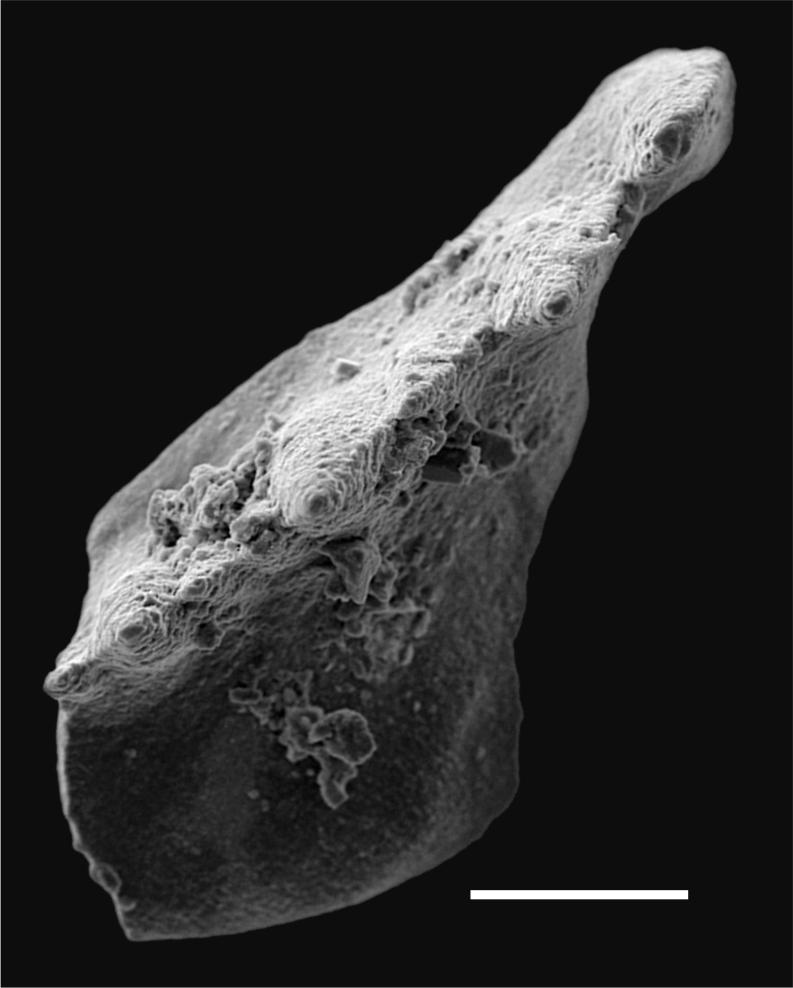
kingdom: Animalia
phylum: Chordata
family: Balognathidae
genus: Baltoniodus
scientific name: Baltoniodus Prioniodus variabilis
